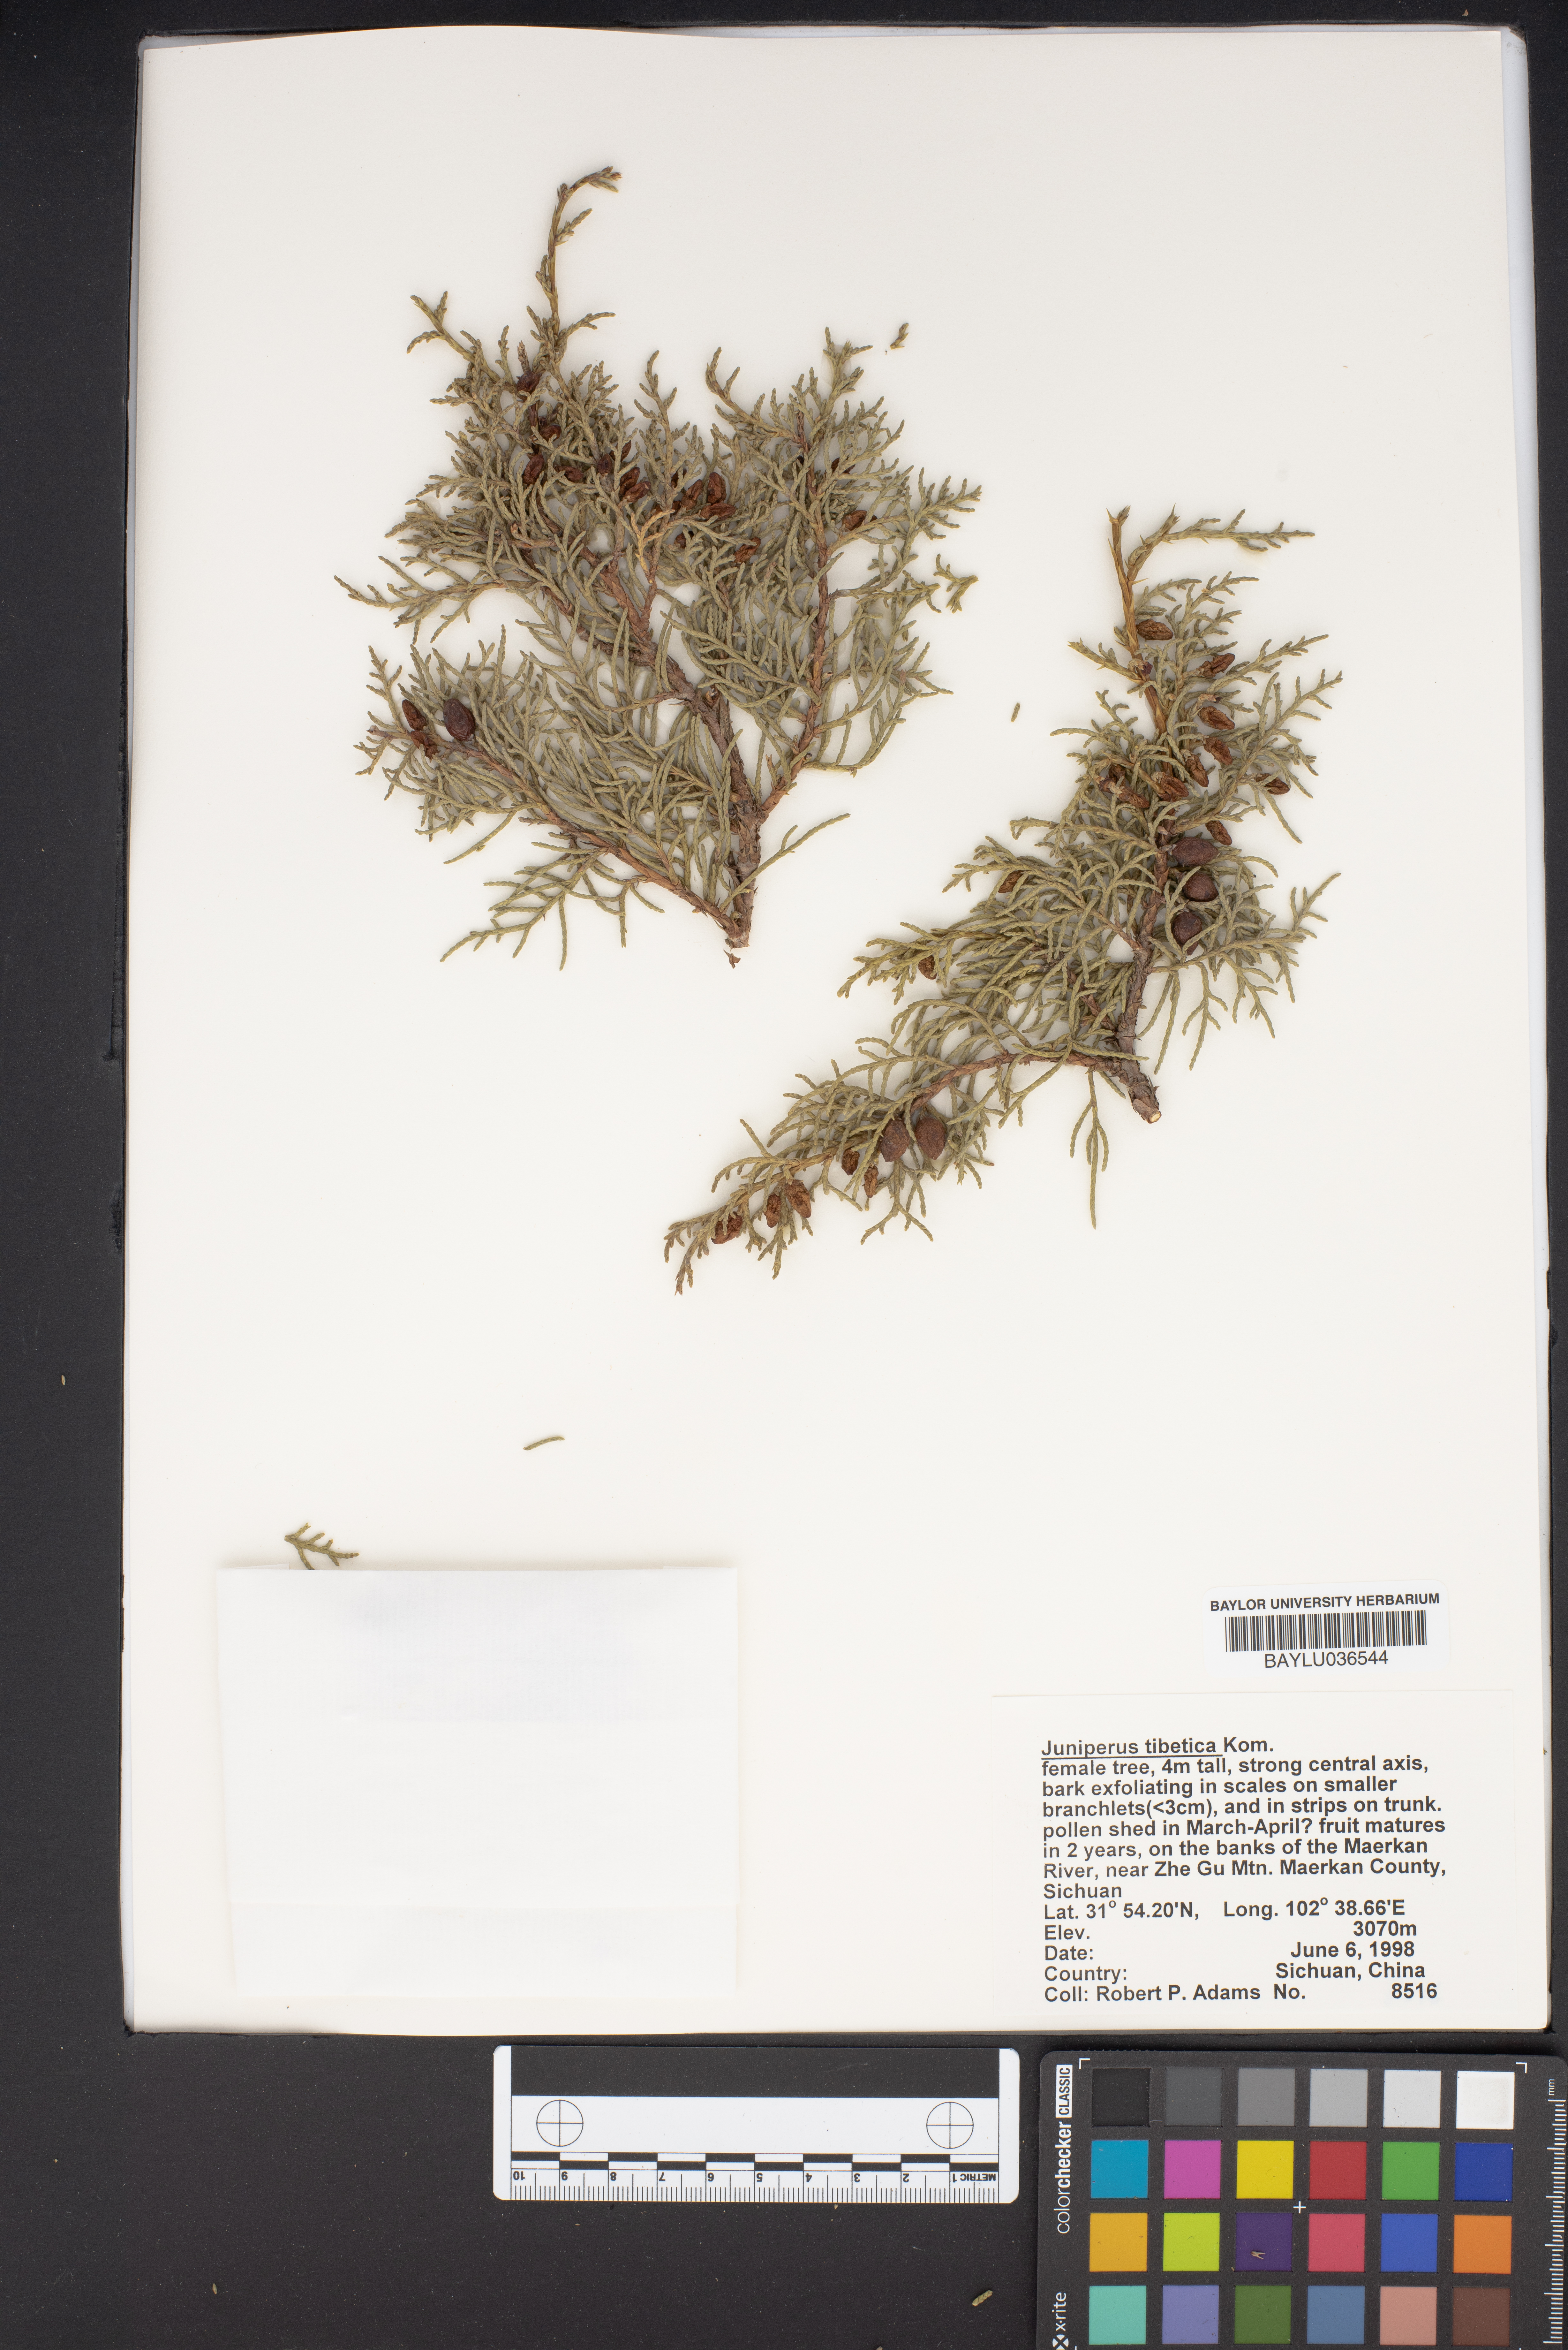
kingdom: Plantae
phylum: Tracheophyta
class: Pinopsida
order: Pinales
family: Cupressaceae
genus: Juniperus
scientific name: Juniperus tibetica
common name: Tibetan juniper
